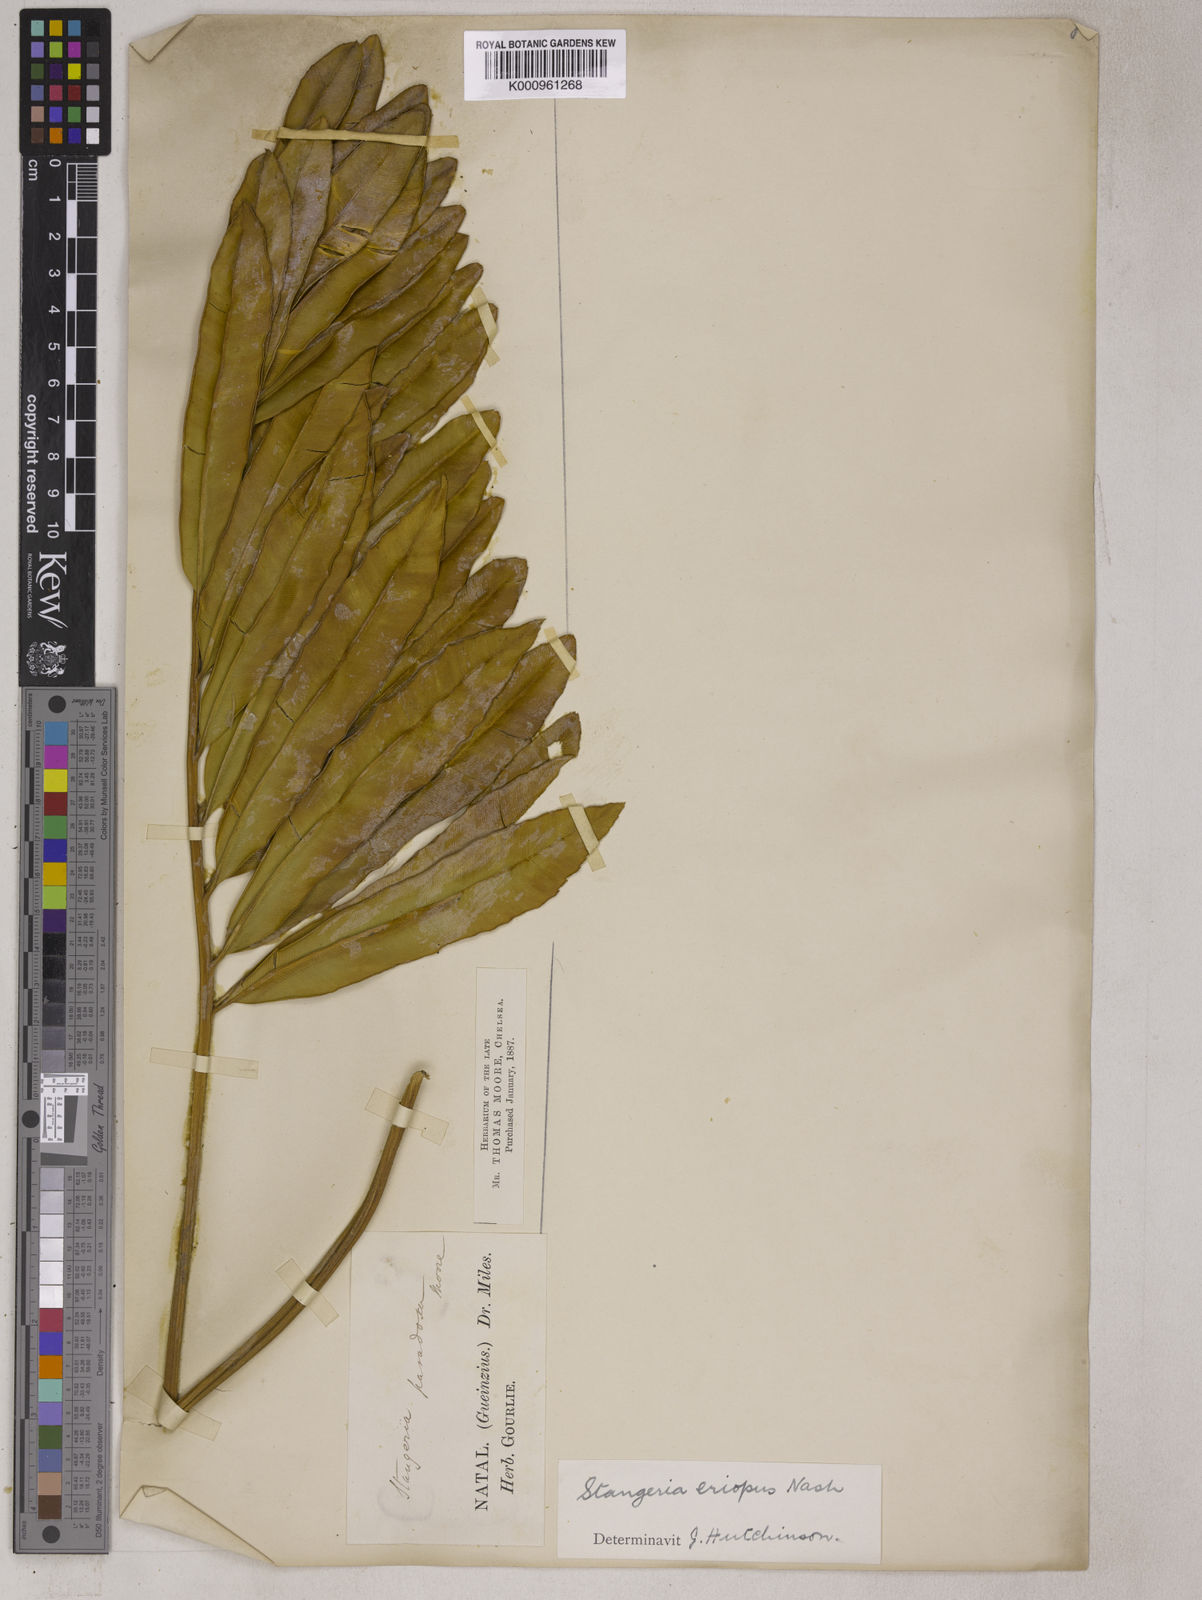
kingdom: Plantae
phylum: Tracheophyta
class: Cycadopsida
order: Cycadales
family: Zamiaceae
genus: Stangeria
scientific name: Stangeria eriopus
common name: Natal grass cycad
